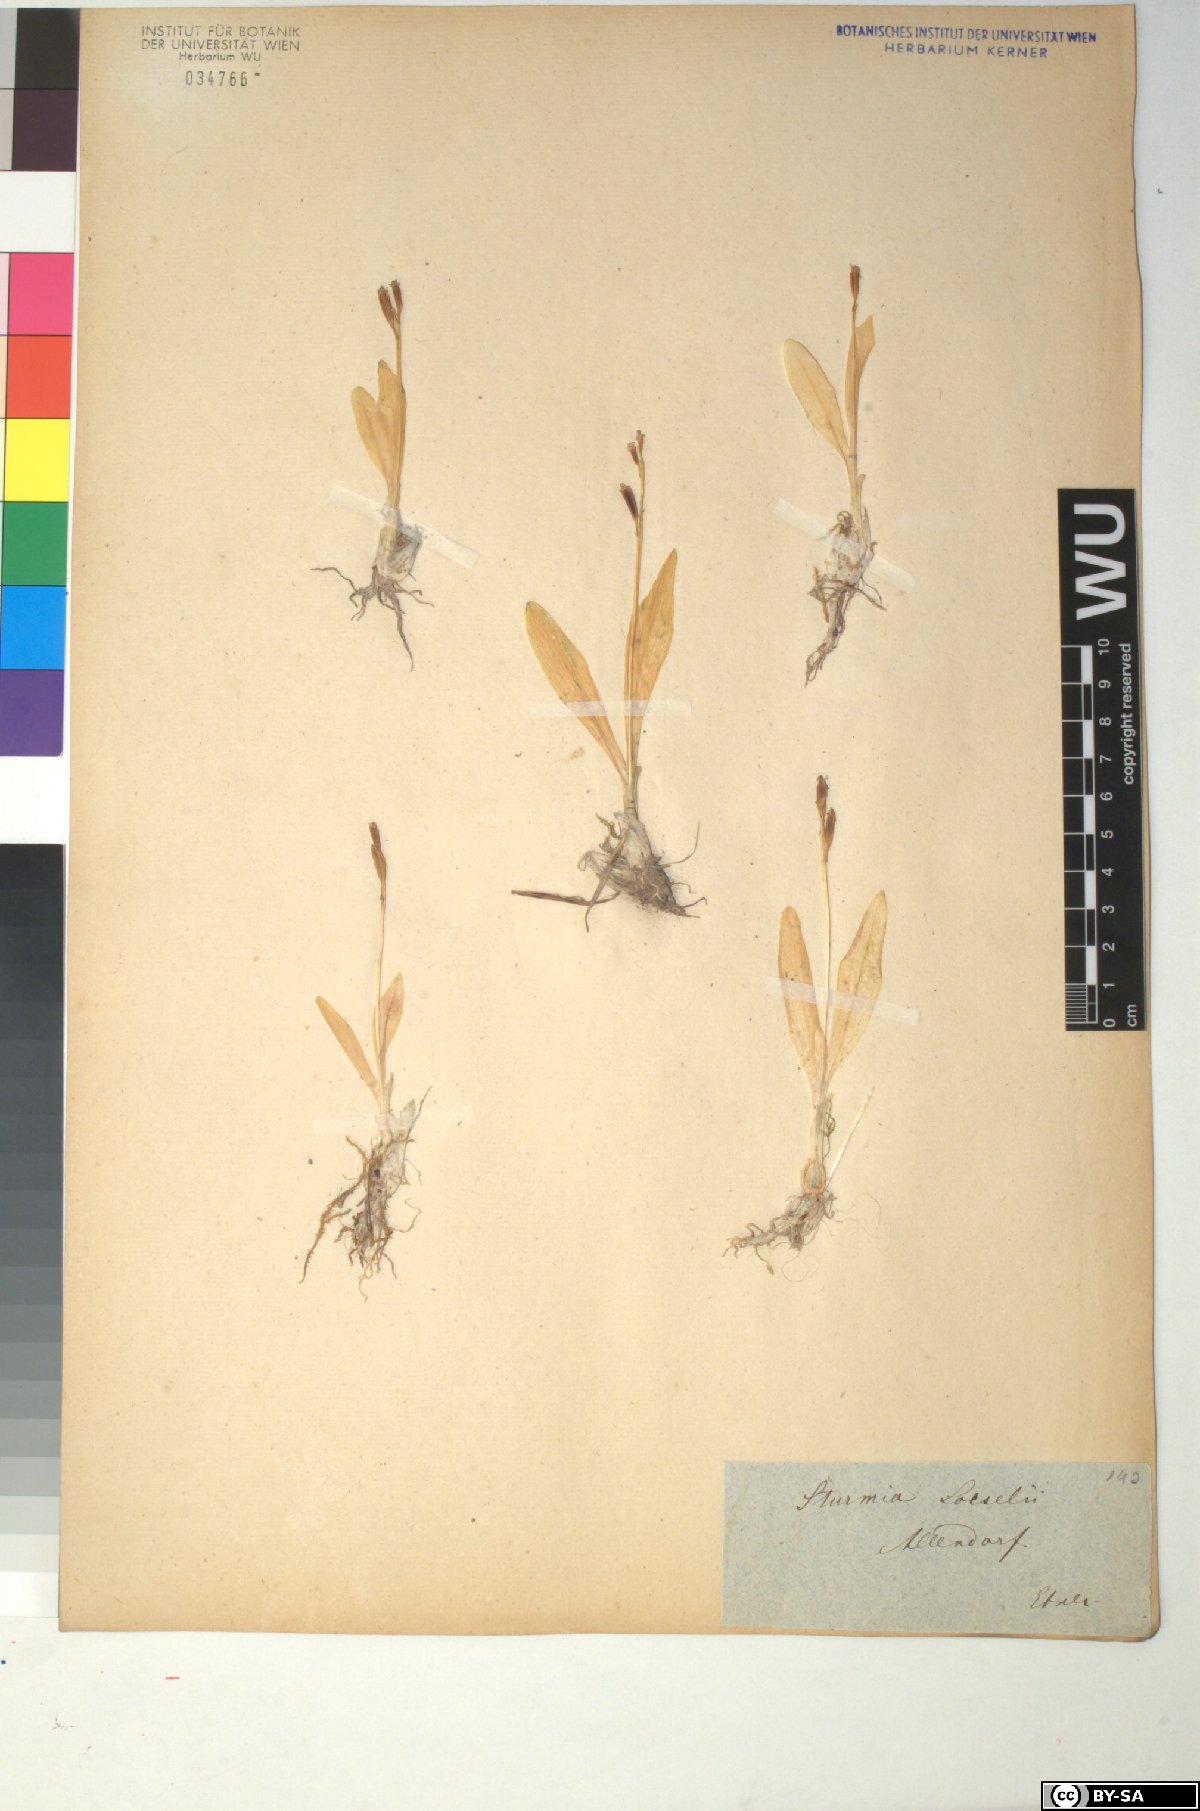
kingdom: Animalia
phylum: Arthropoda
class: Insecta
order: Coleoptera
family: Curculionidae
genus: Liparis
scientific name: Liparis loeselii
